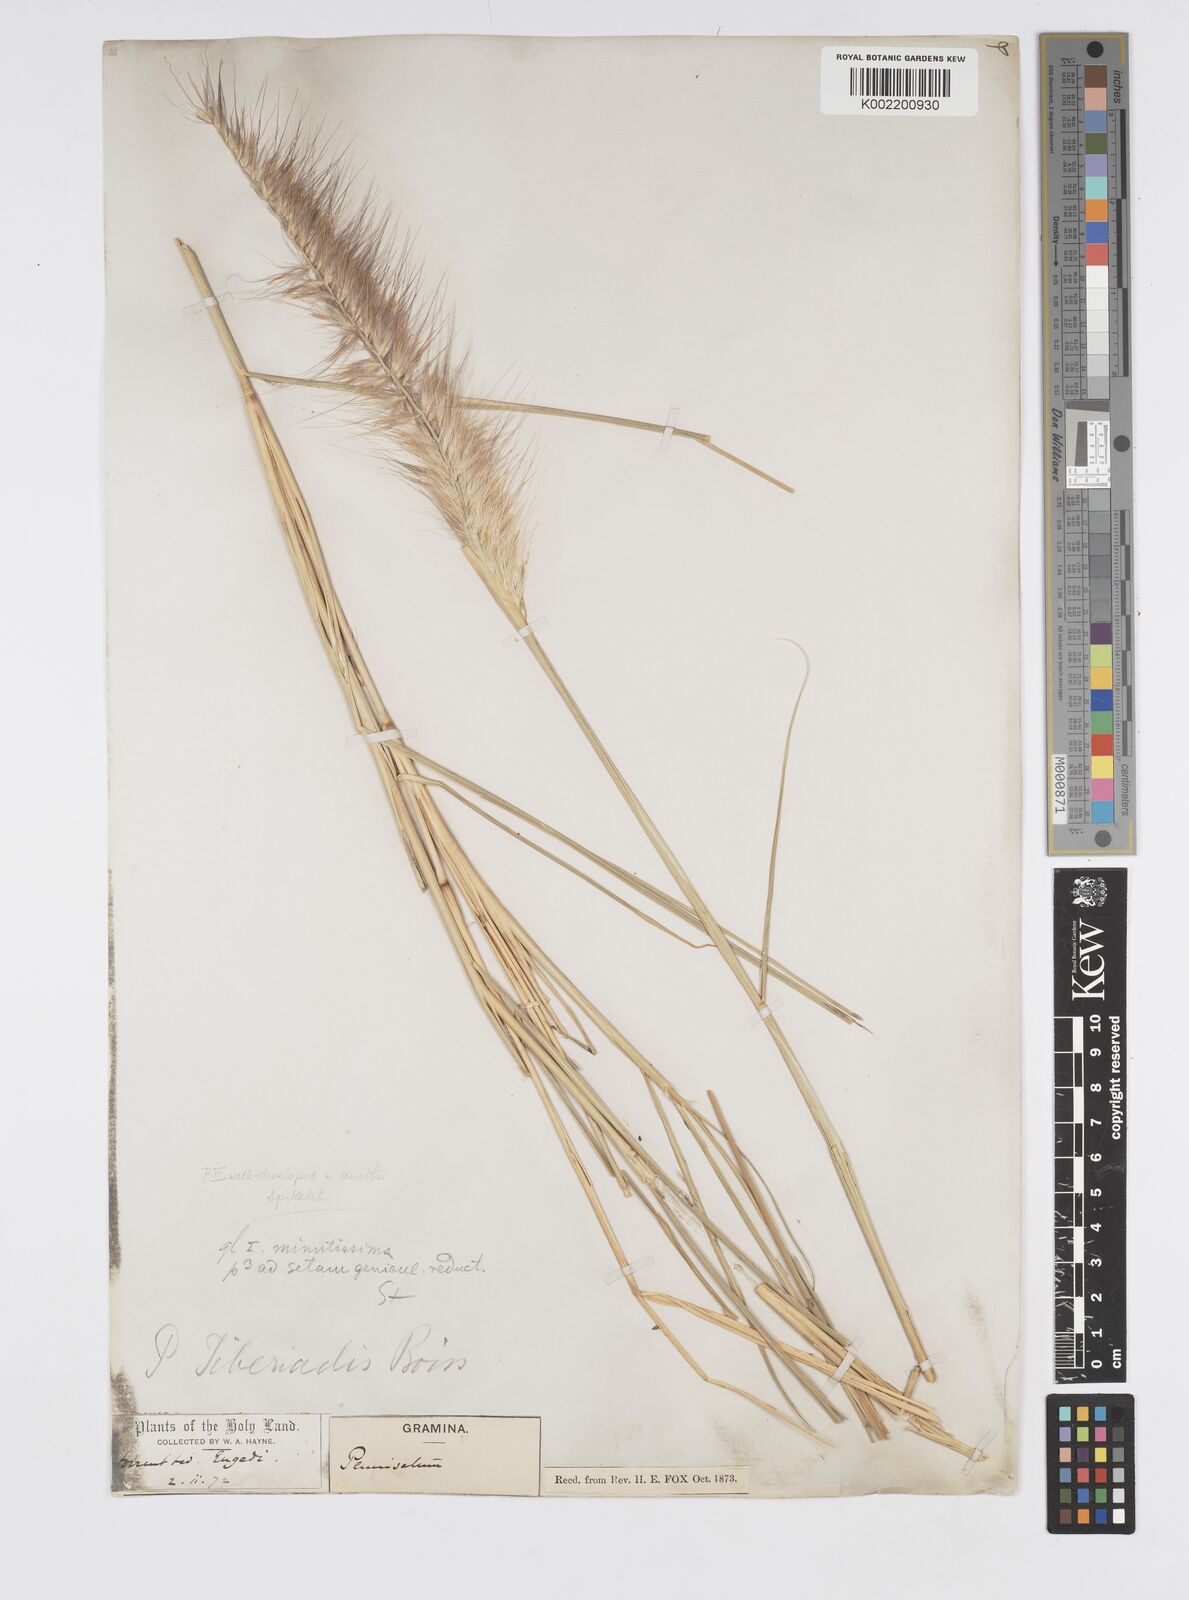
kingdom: Plantae
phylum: Tracheophyta
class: Liliopsida
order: Poales
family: Poaceae
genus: Cenchrus
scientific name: Cenchrus setaceus
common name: Crimson fountaingrass
